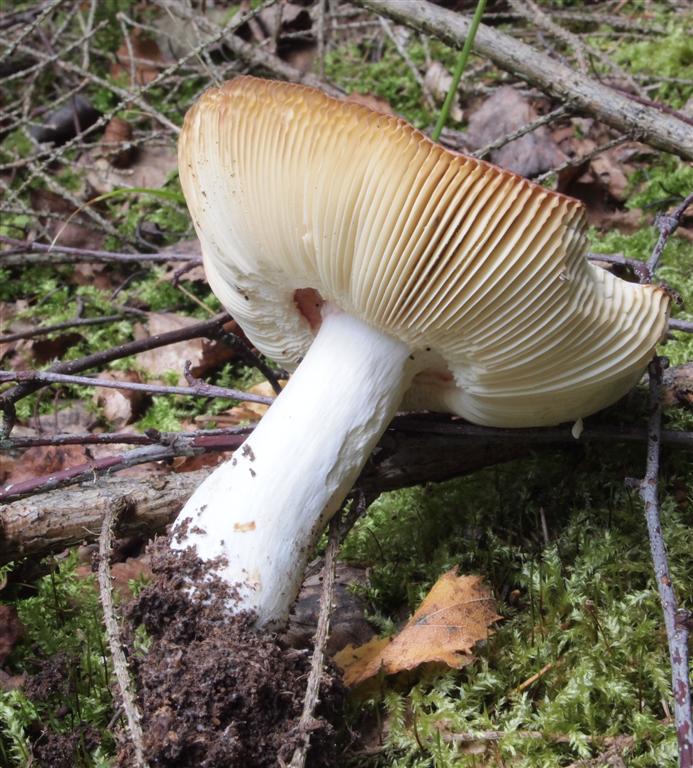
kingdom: Fungi
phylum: Basidiomycota
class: Agaricomycetes
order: Russulales
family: Russulaceae
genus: Russula
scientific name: Russula velenovskyi
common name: orangerød skørhat
